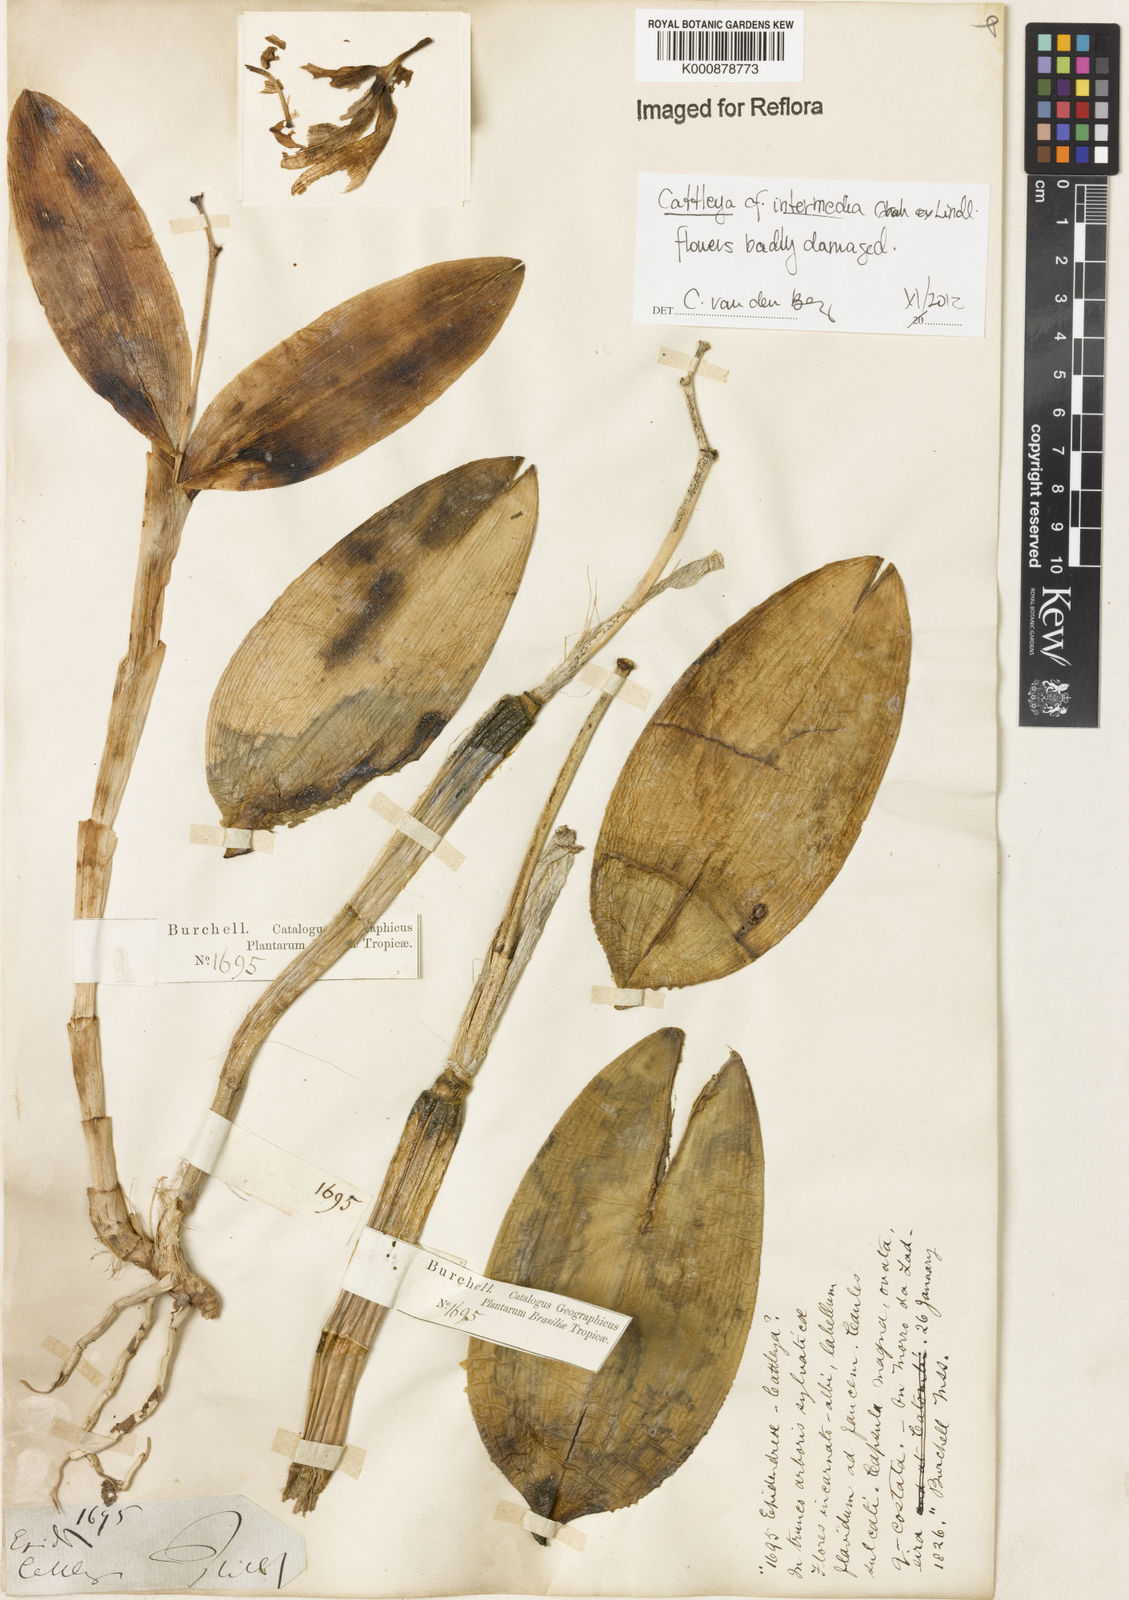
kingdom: Plantae
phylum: Tracheophyta
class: Liliopsida
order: Asparagales
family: Orchidaceae
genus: Cattleya
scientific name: Cattleya intermedia
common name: Intermediate cattleya
